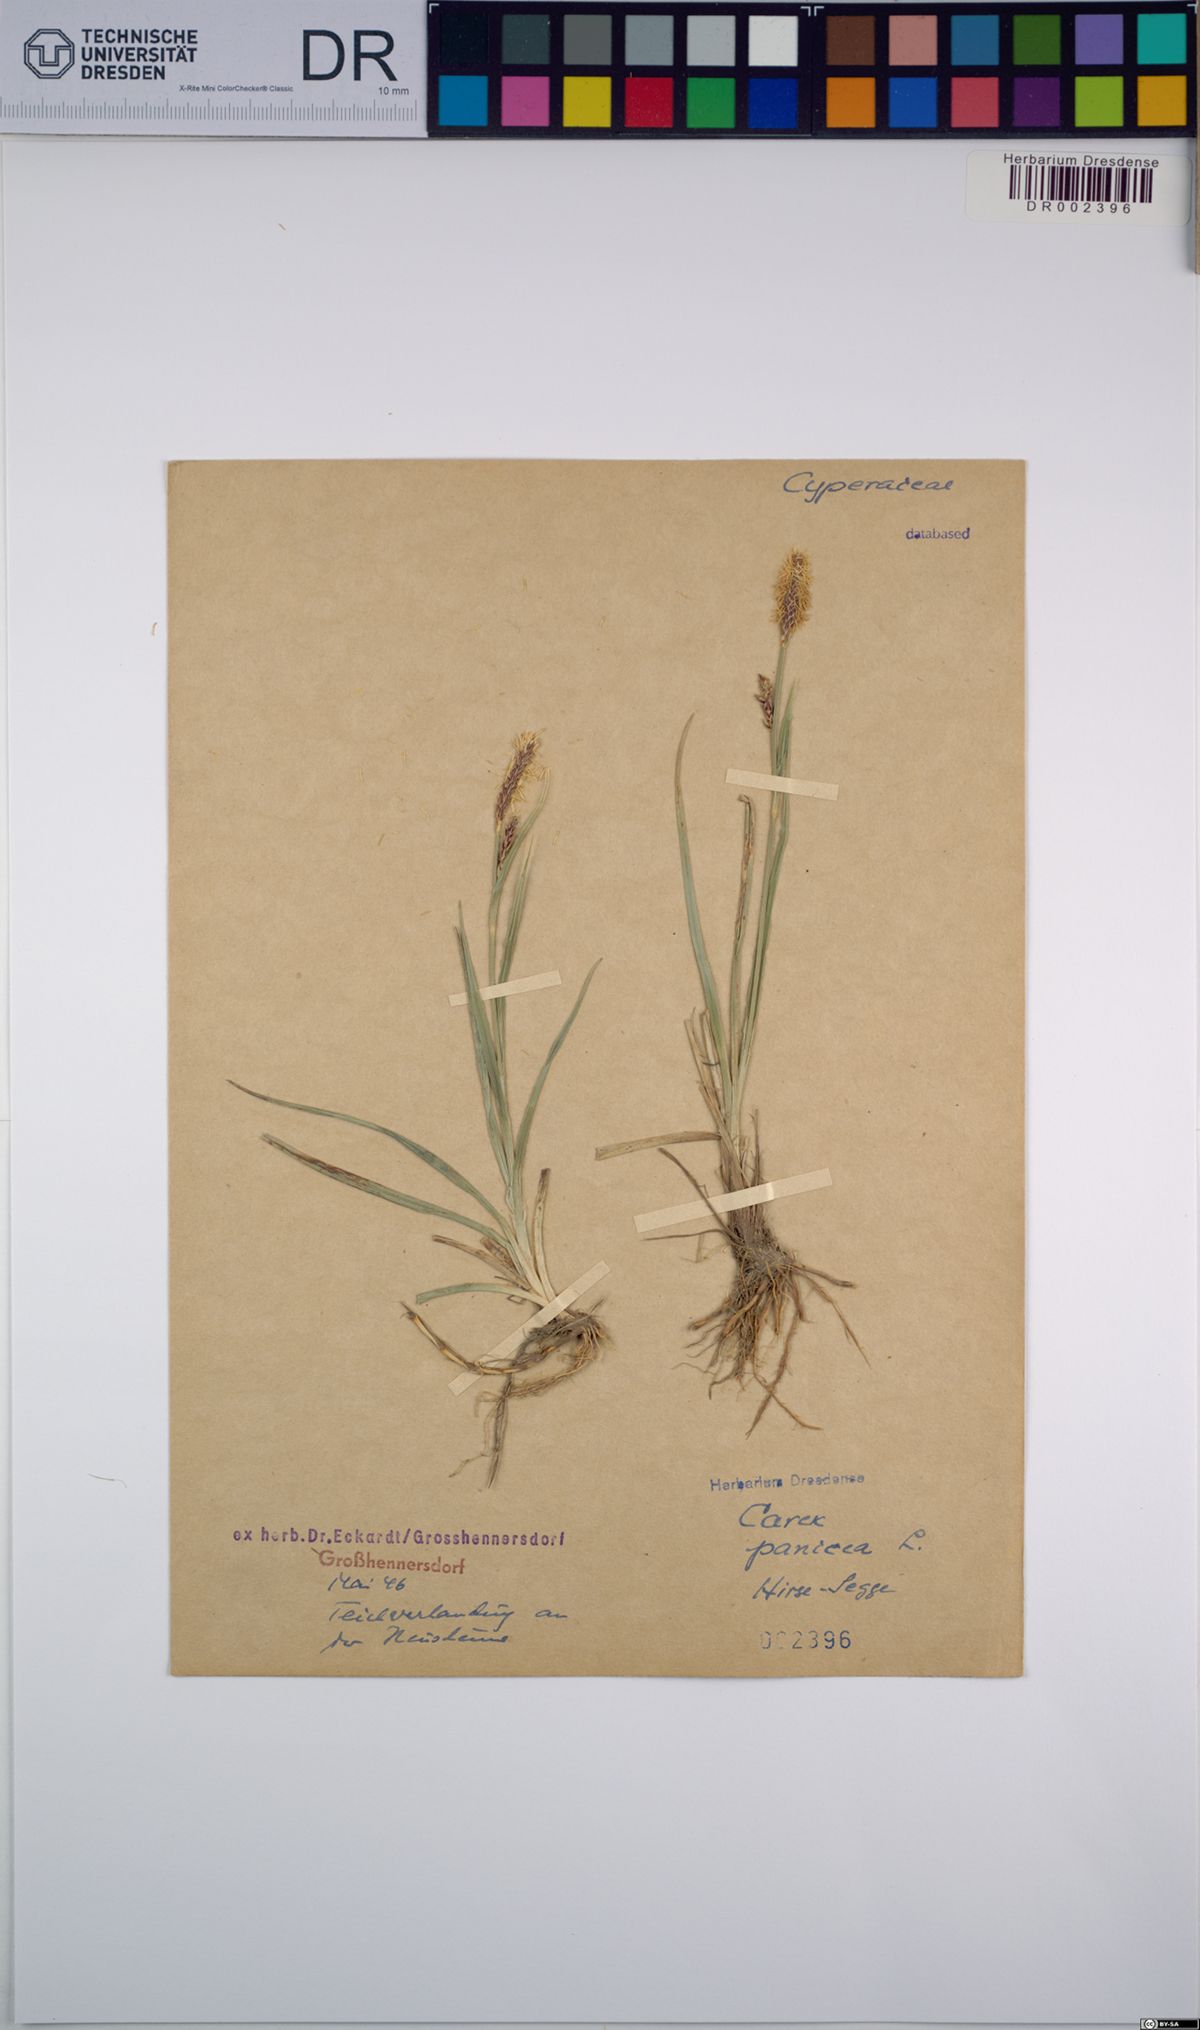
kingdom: Plantae
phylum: Tracheophyta
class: Liliopsida
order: Poales
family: Cyperaceae
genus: Carex
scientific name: Carex panicea
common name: Carnation sedge
